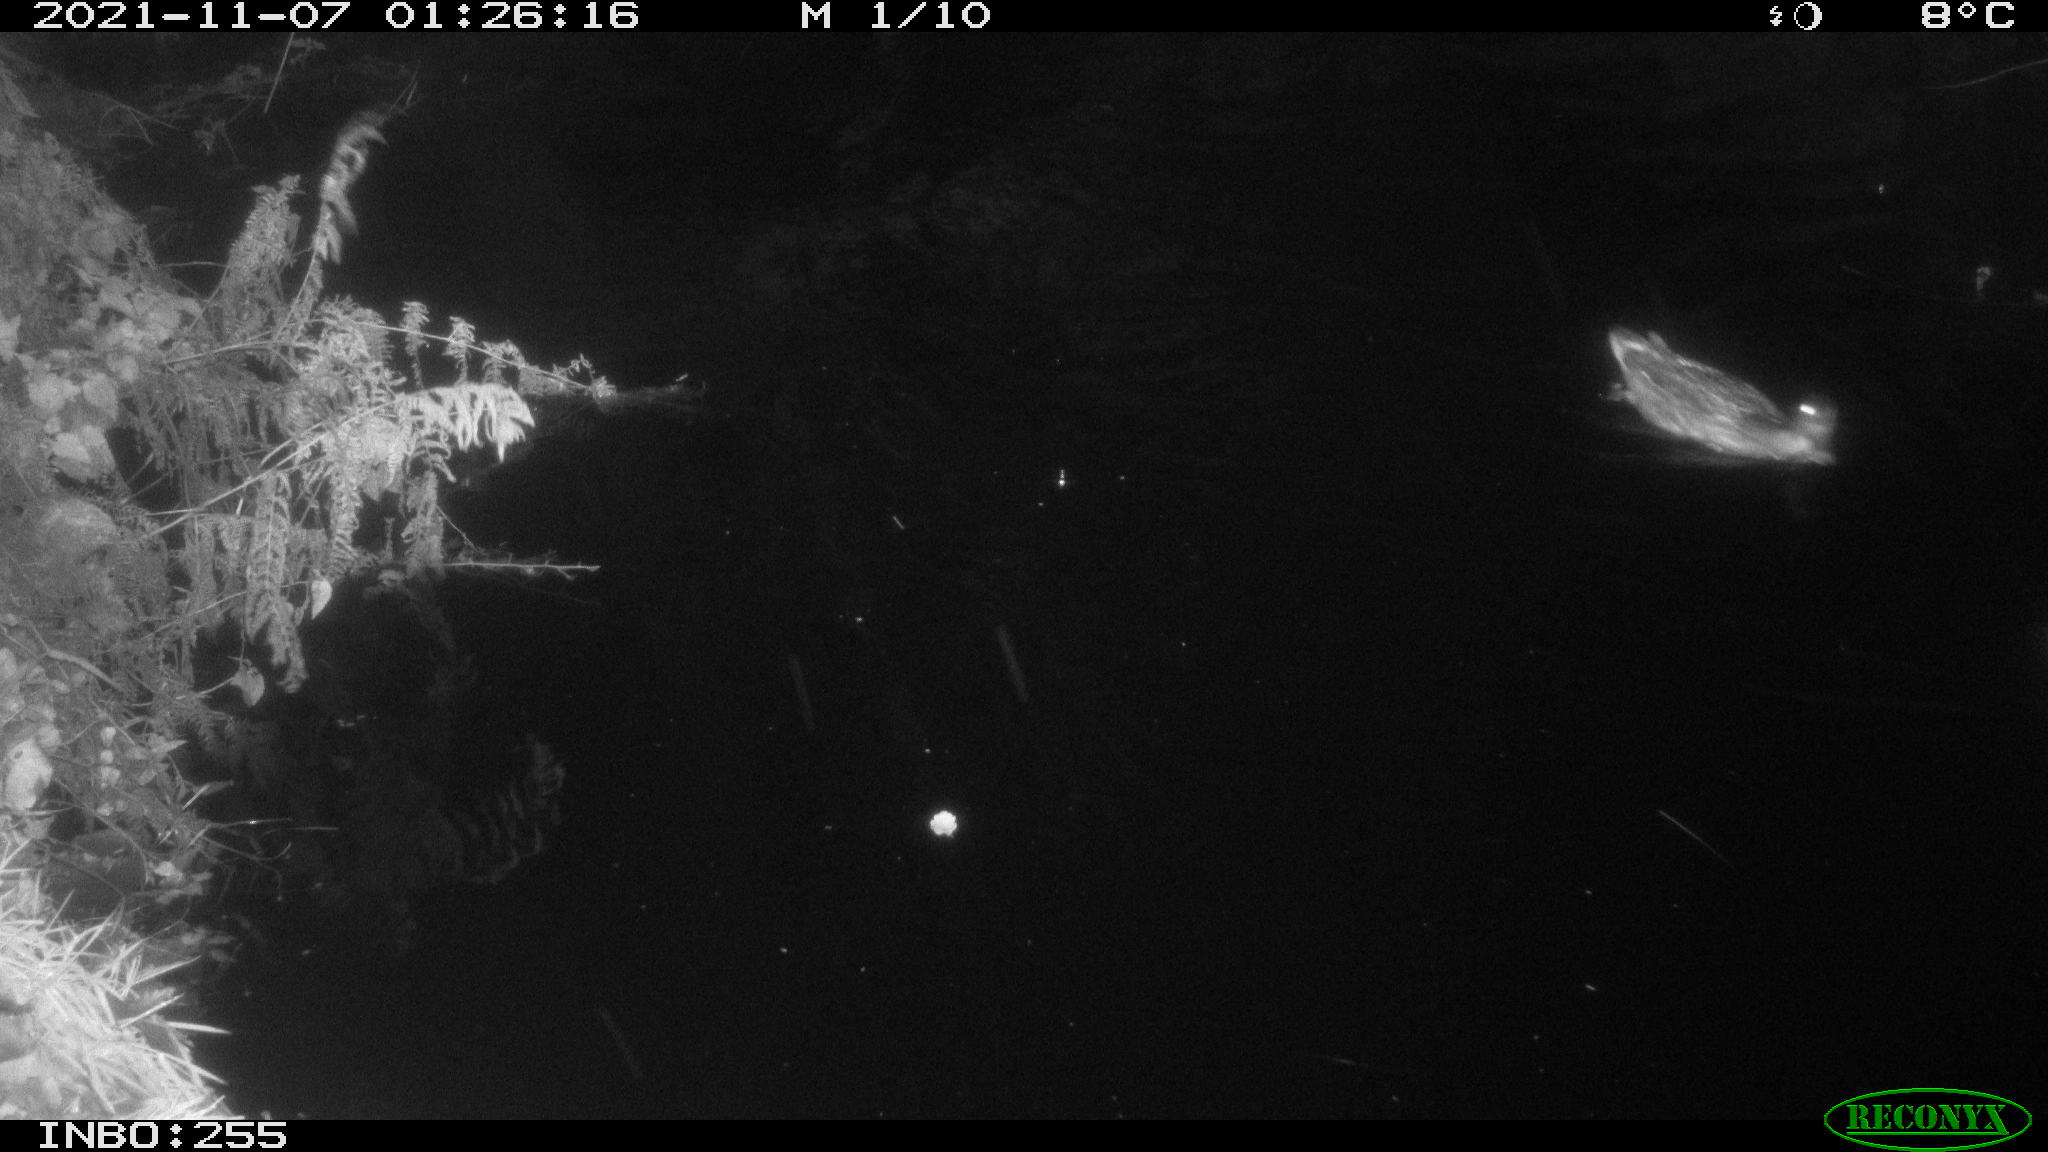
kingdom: Animalia
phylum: Chordata
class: Aves
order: Anseriformes
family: Anatidae
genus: Anas
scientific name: Anas platyrhynchos
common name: Mallard
